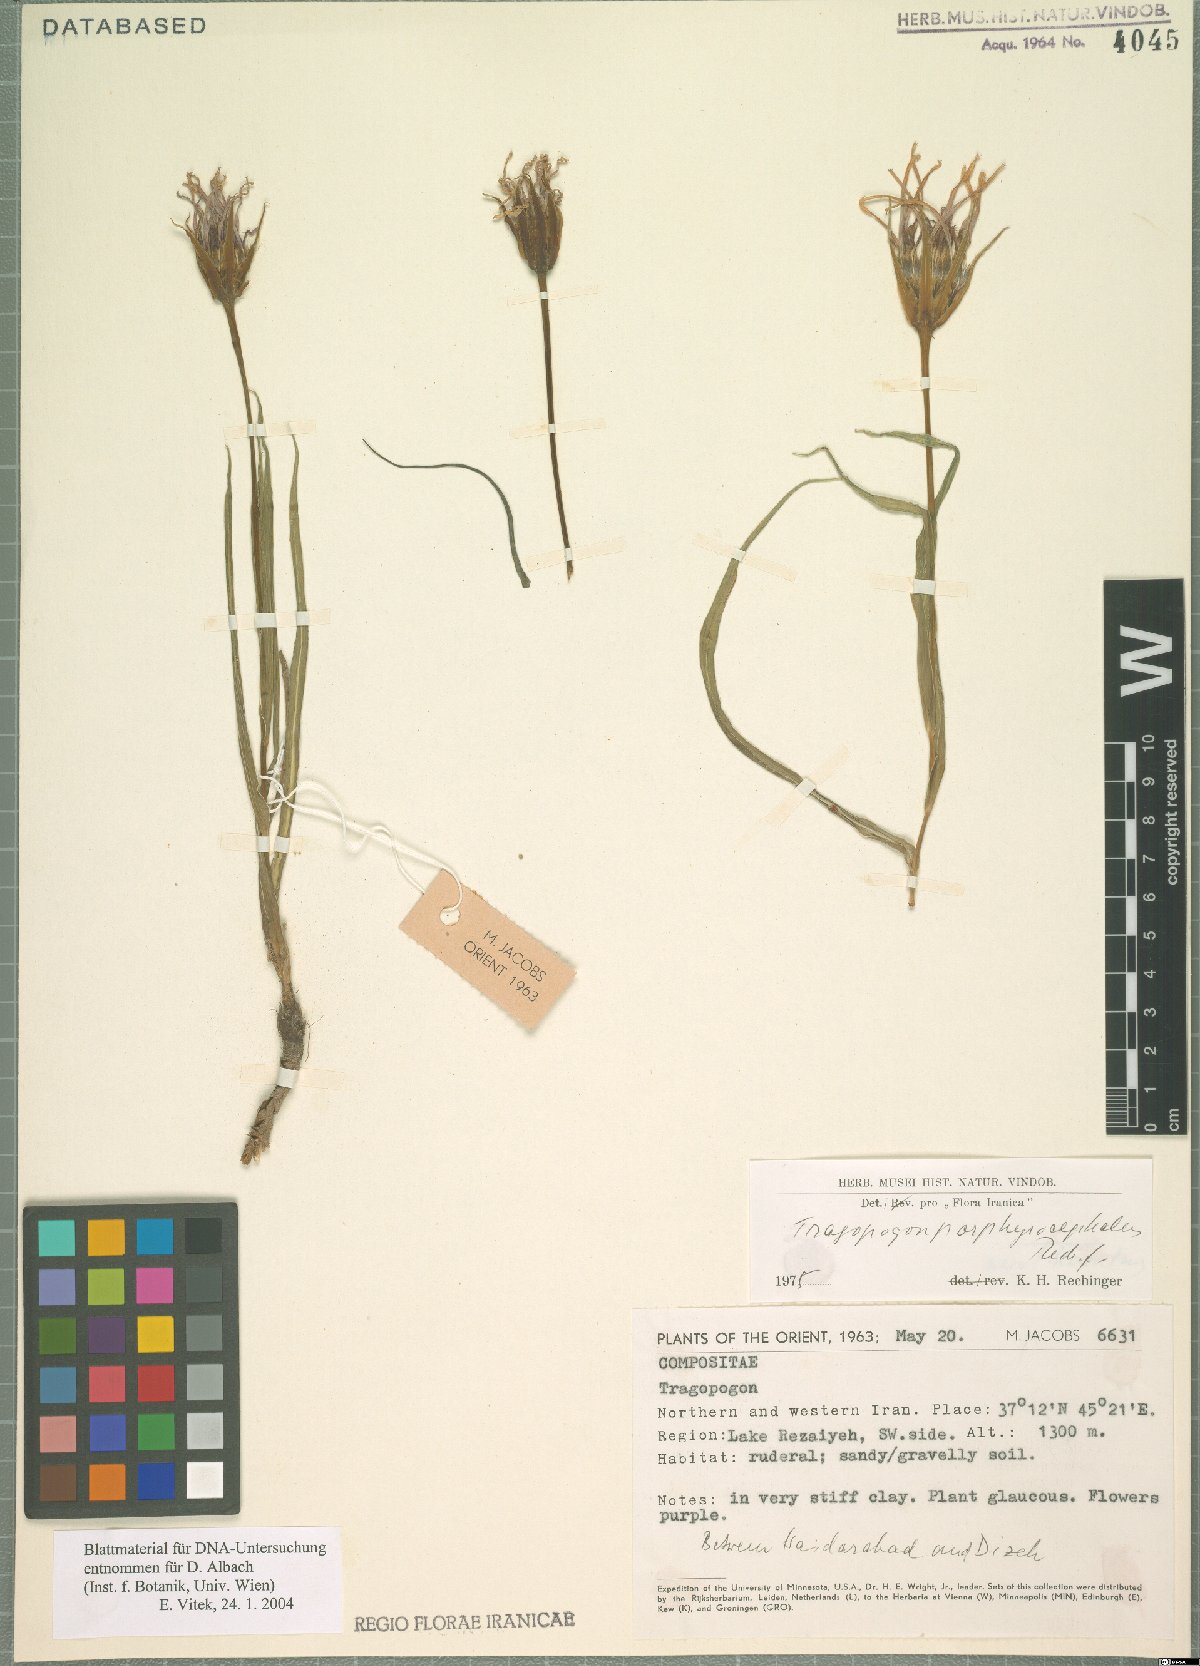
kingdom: Plantae
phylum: Tracheophyta
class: Magnoliopsida
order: Asterales
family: Asteraceae
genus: Tragopogon
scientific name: Tragopogon porphyrocephalus
